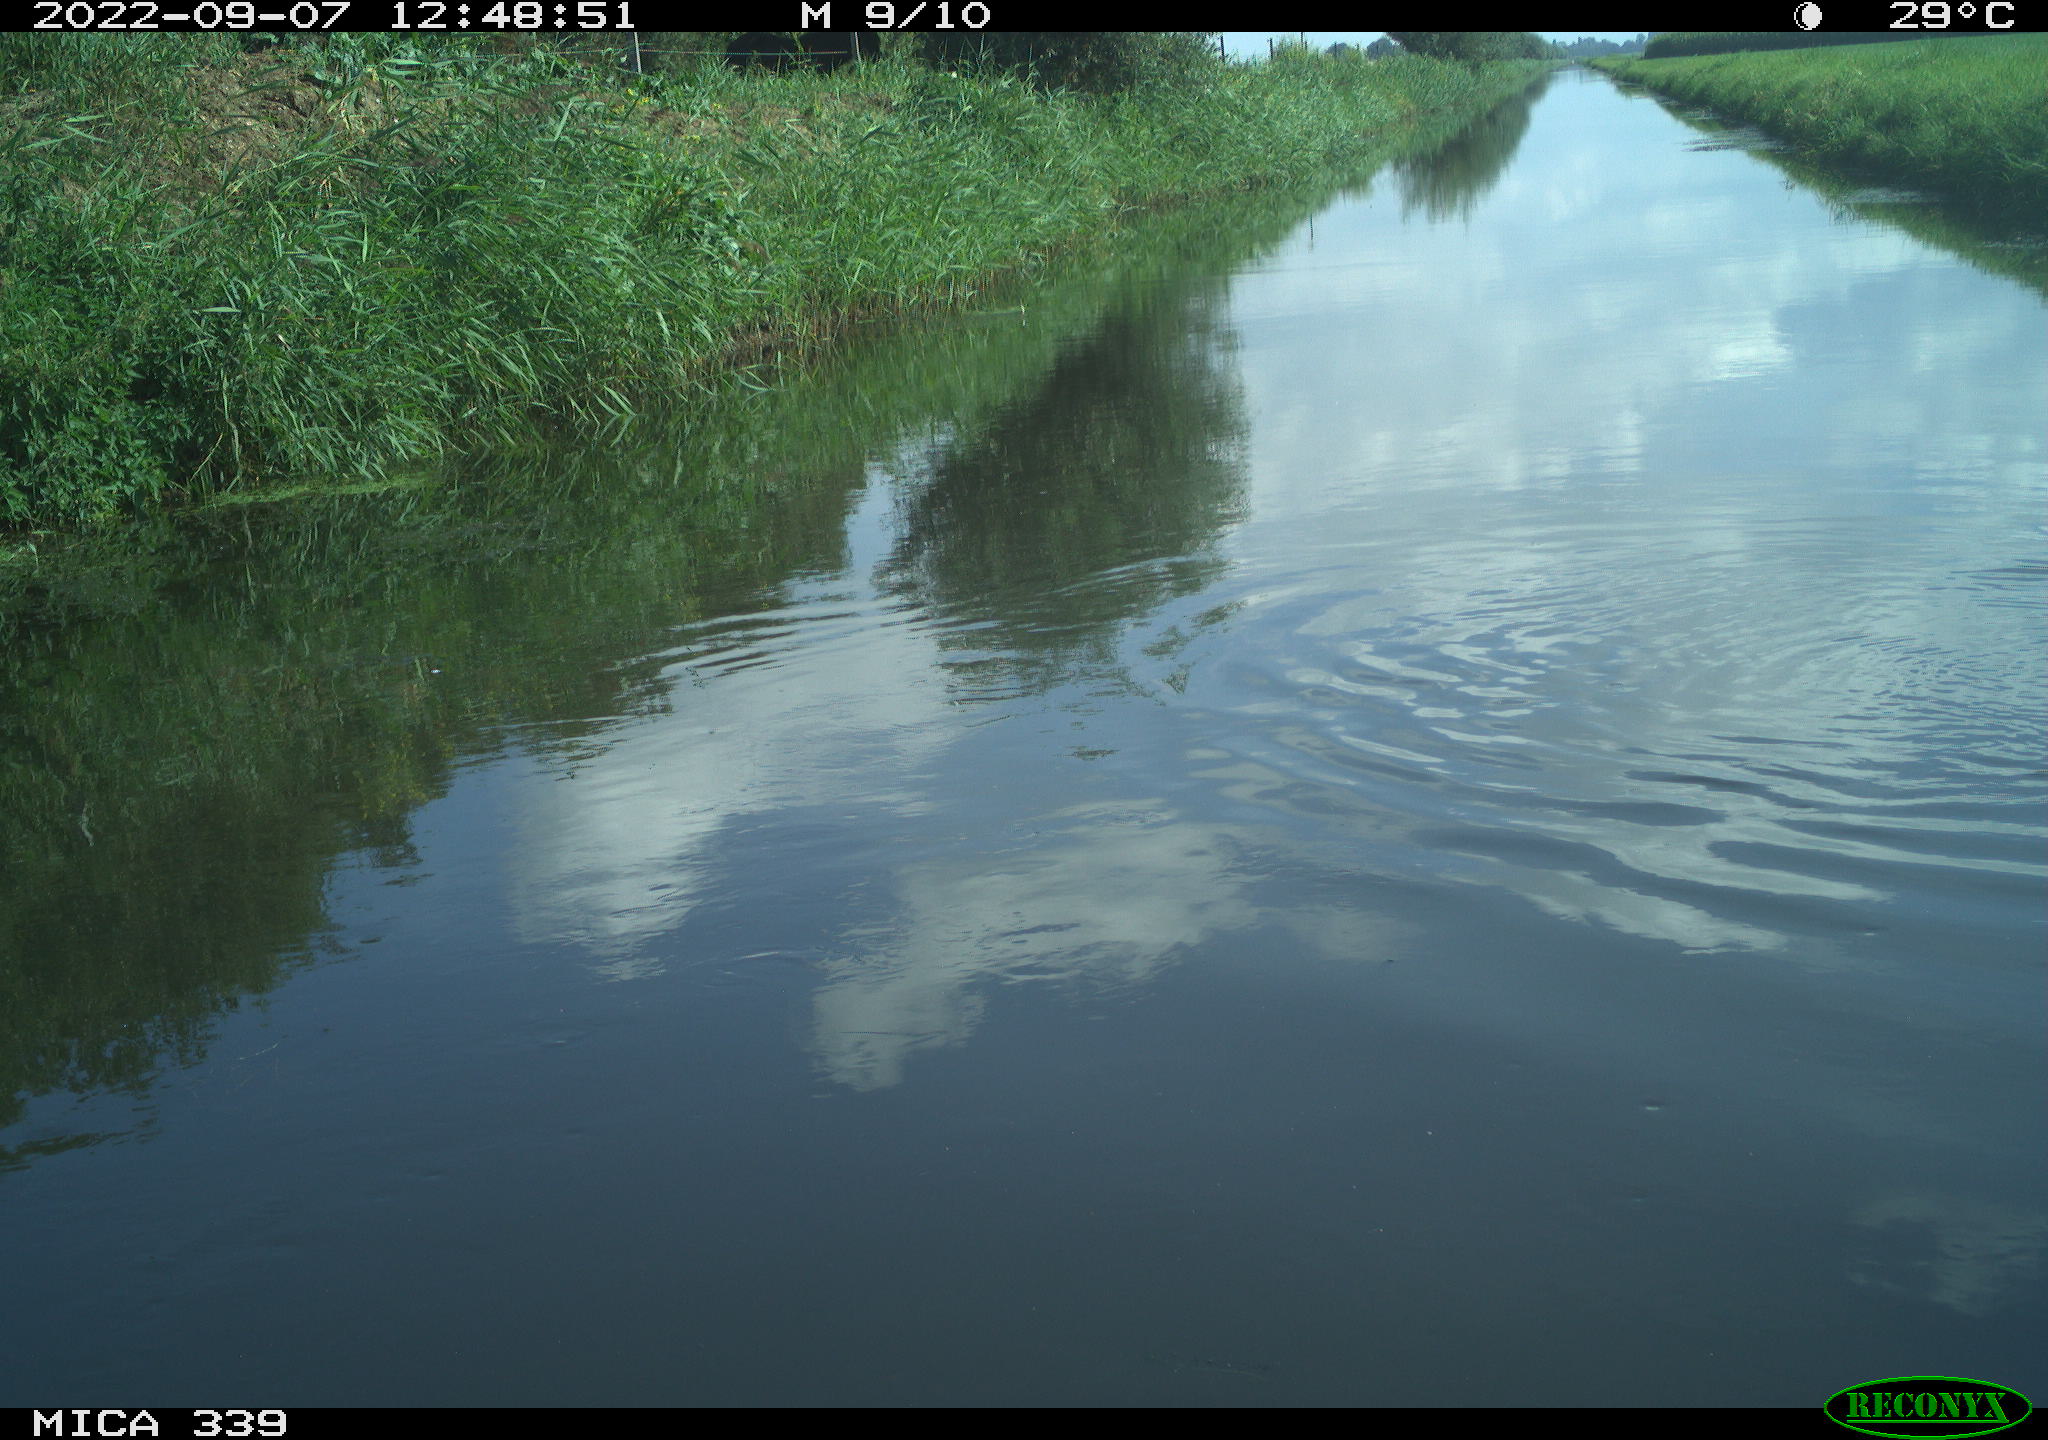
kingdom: Animalia
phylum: Chordata
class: Aves
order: Charadriiformes
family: Laridae
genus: Chroicocephalus
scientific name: Chroicocephalus ridibundus
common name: Black-headed gull
